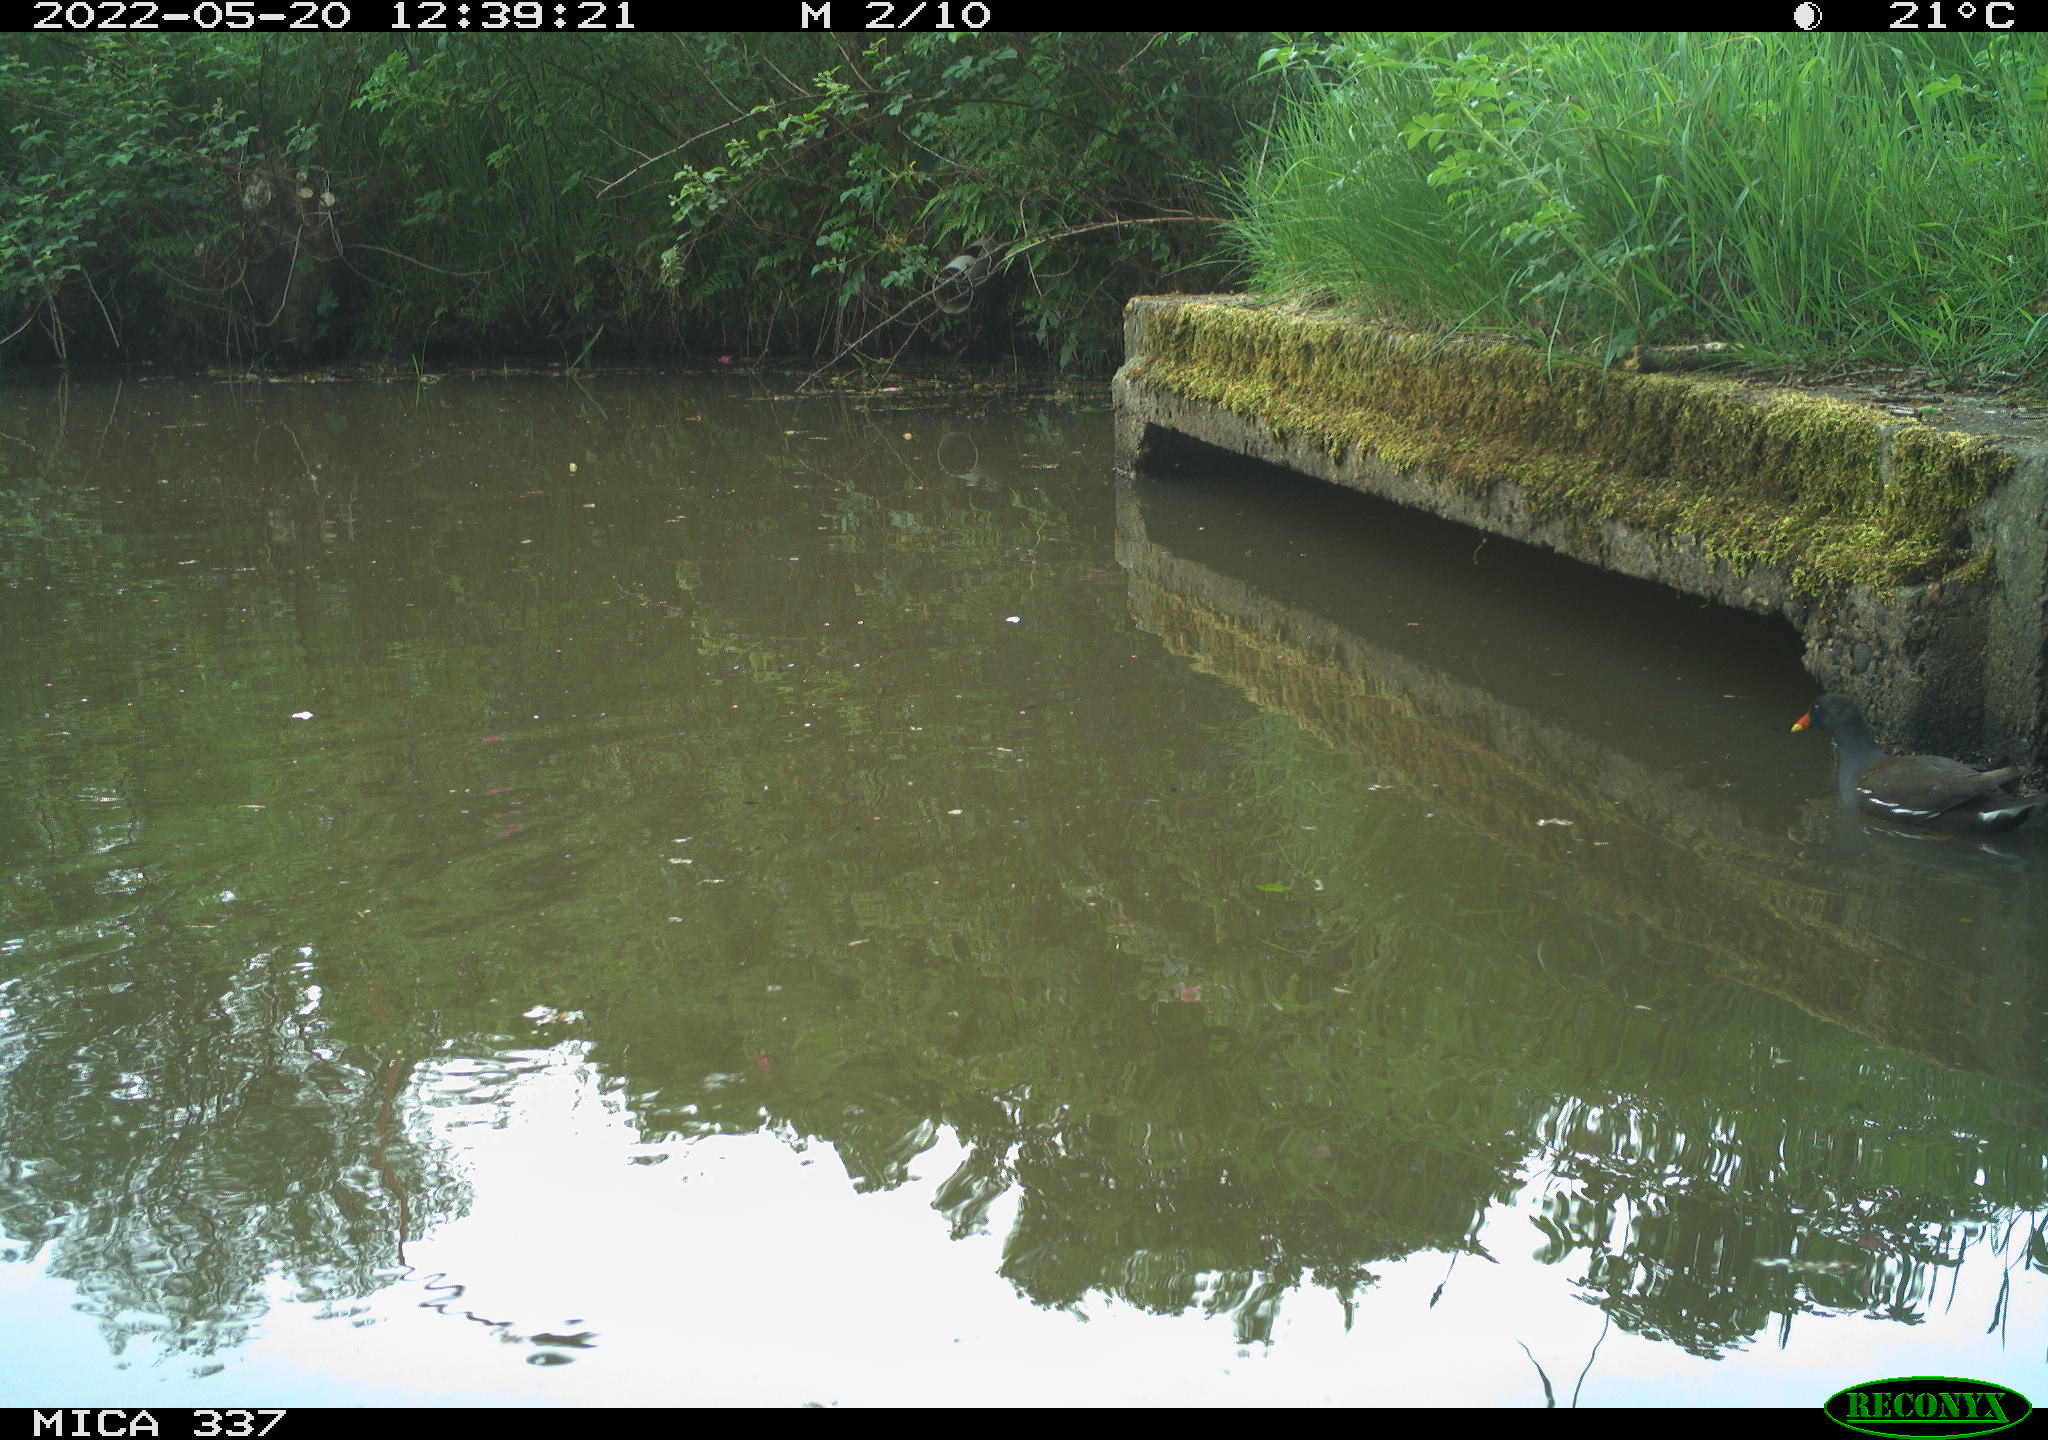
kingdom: Animalia
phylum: Chordata
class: Aves
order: Gruiformes
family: Rallidae
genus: Gallinula
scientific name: Gallinula chloropus
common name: Common moorhen
